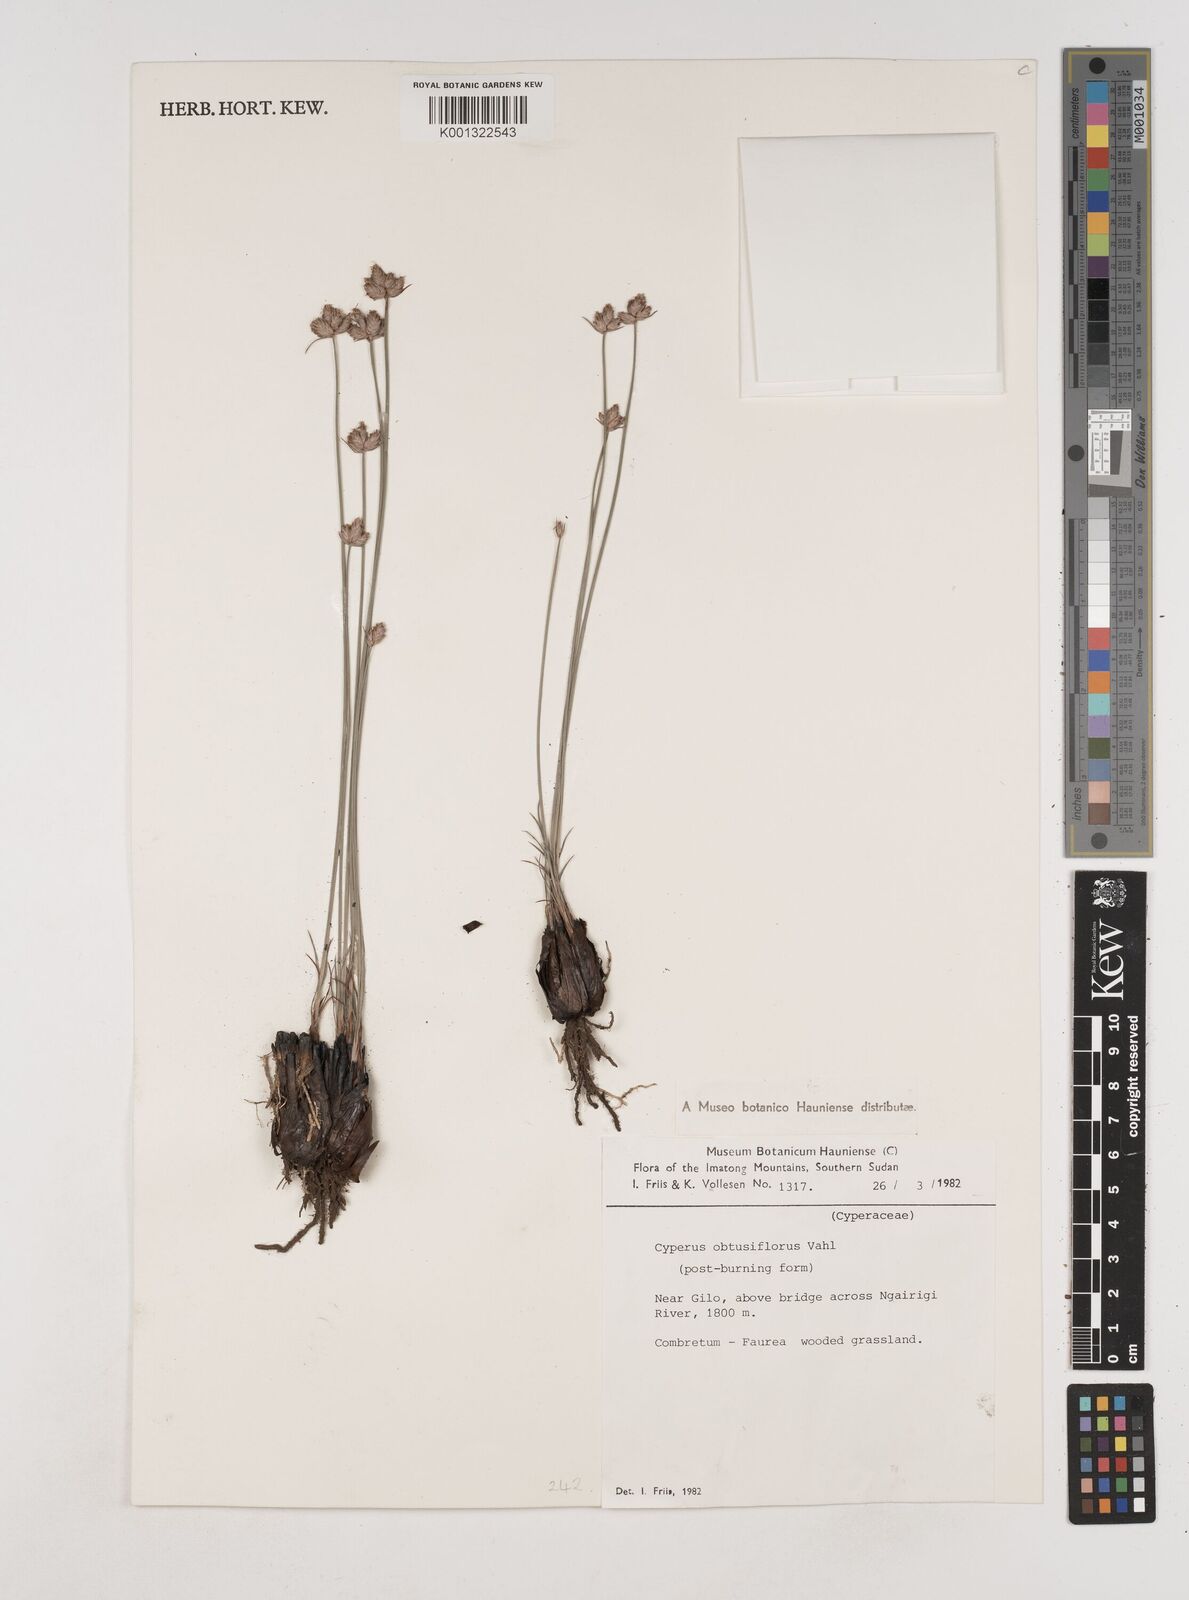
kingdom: Plantae
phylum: Tracheophyta
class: Liliopsida
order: Poales
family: Cyperaceae
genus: Cyperus
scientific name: Cyperus niveus
